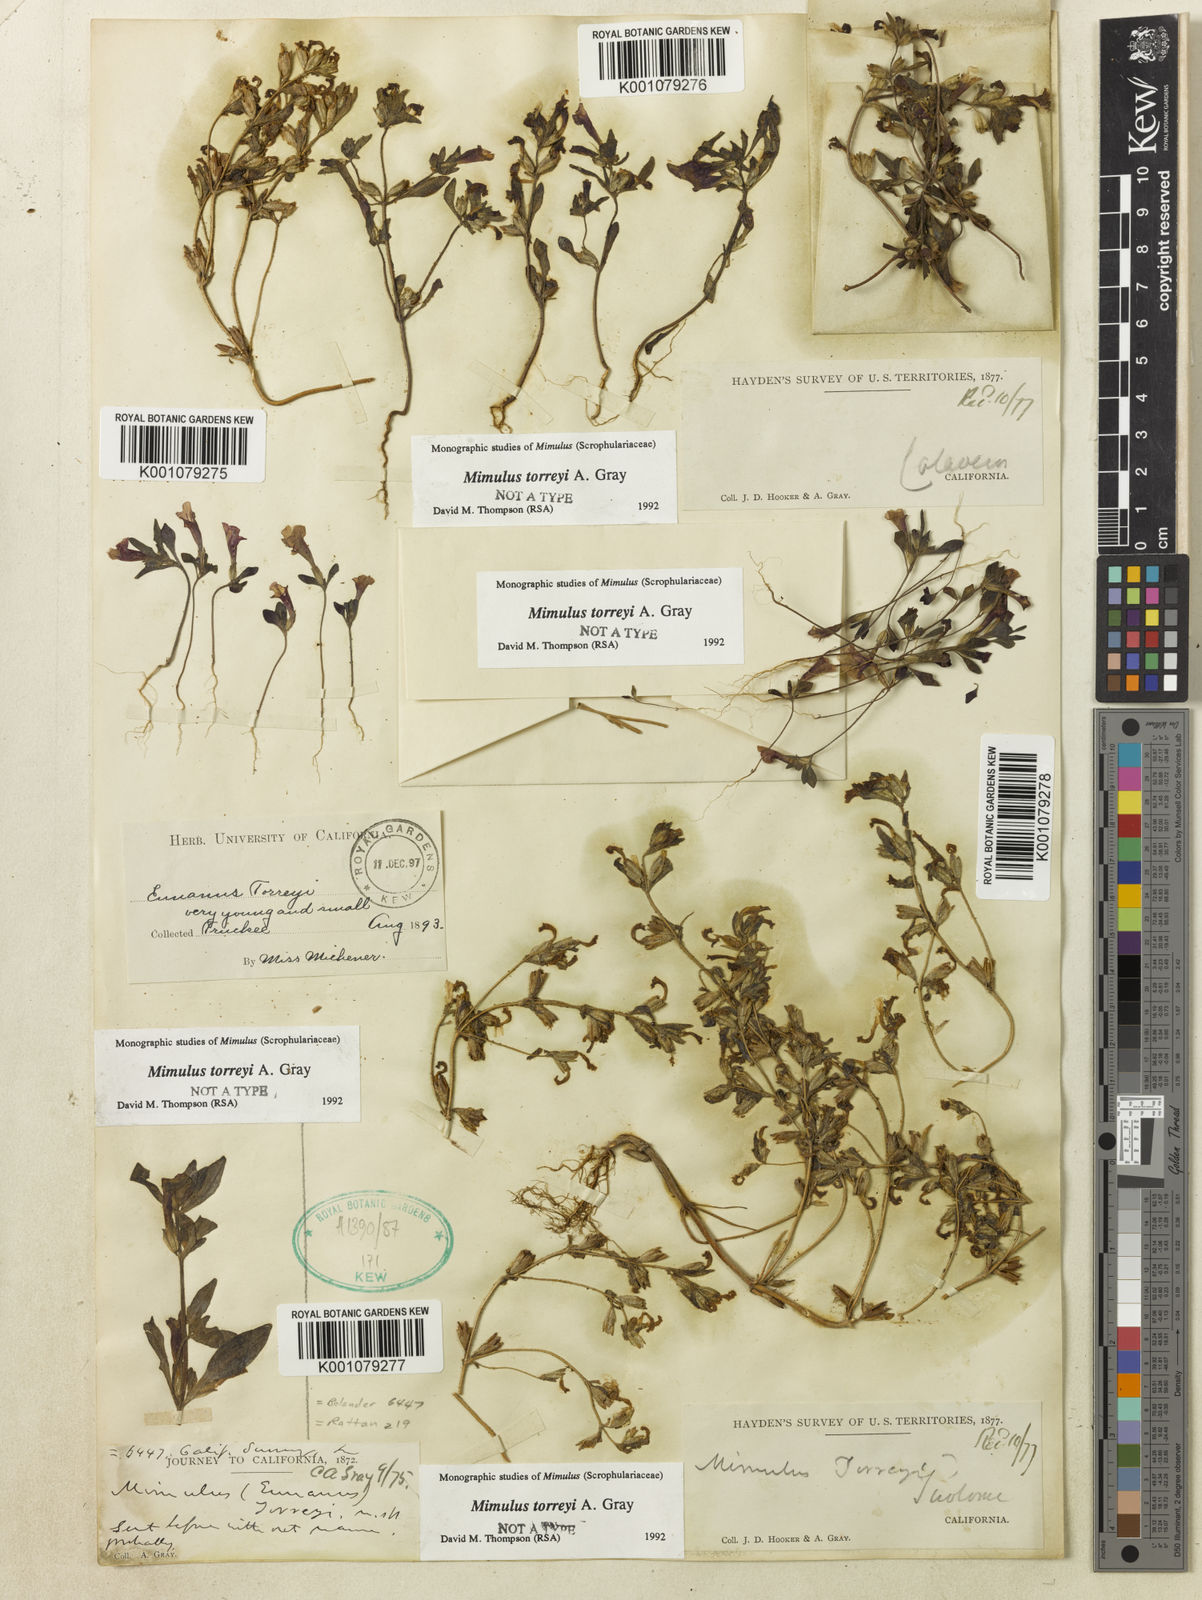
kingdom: Plantae
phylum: Tracheophyta
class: Magnoliopsida
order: Lamiales
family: Phrymaceae
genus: Diplacus
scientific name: Diplacus torreyi
